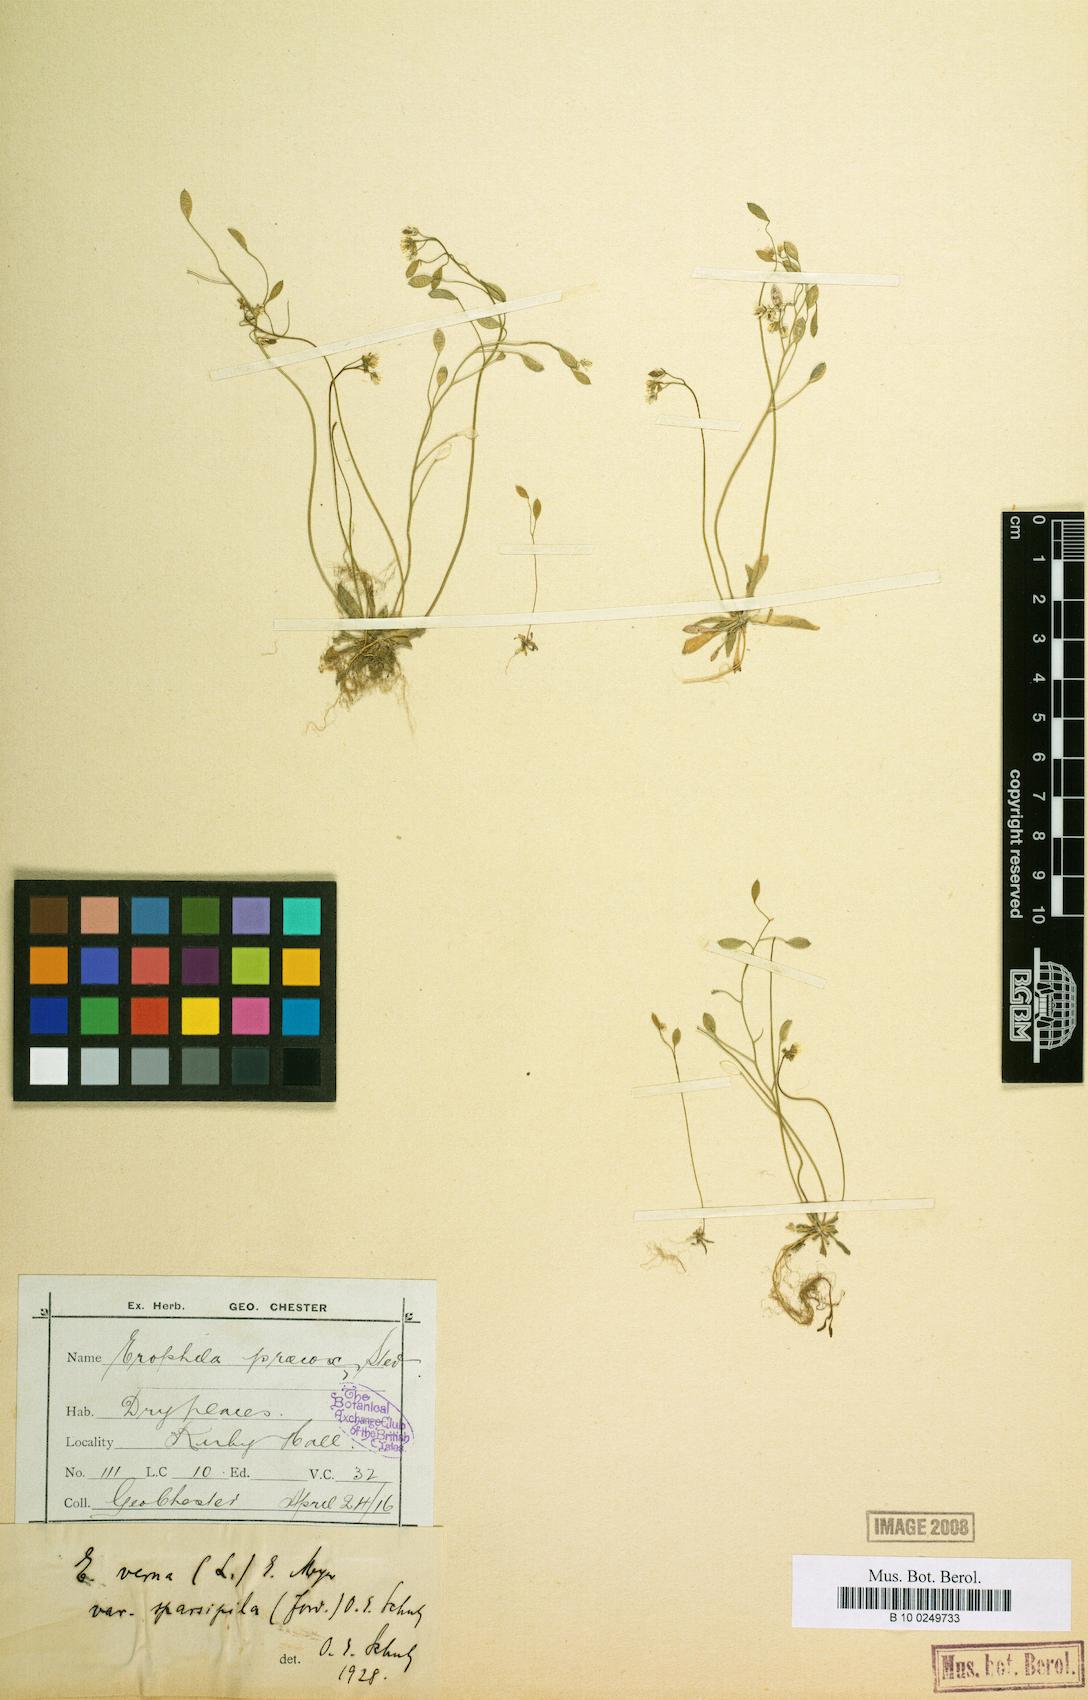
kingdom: Plantae
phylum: Tracheophyta
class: Magnoliopsida
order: Brassicales
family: Brassicaceae
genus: Draba
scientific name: Draba verna
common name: Spring draba
